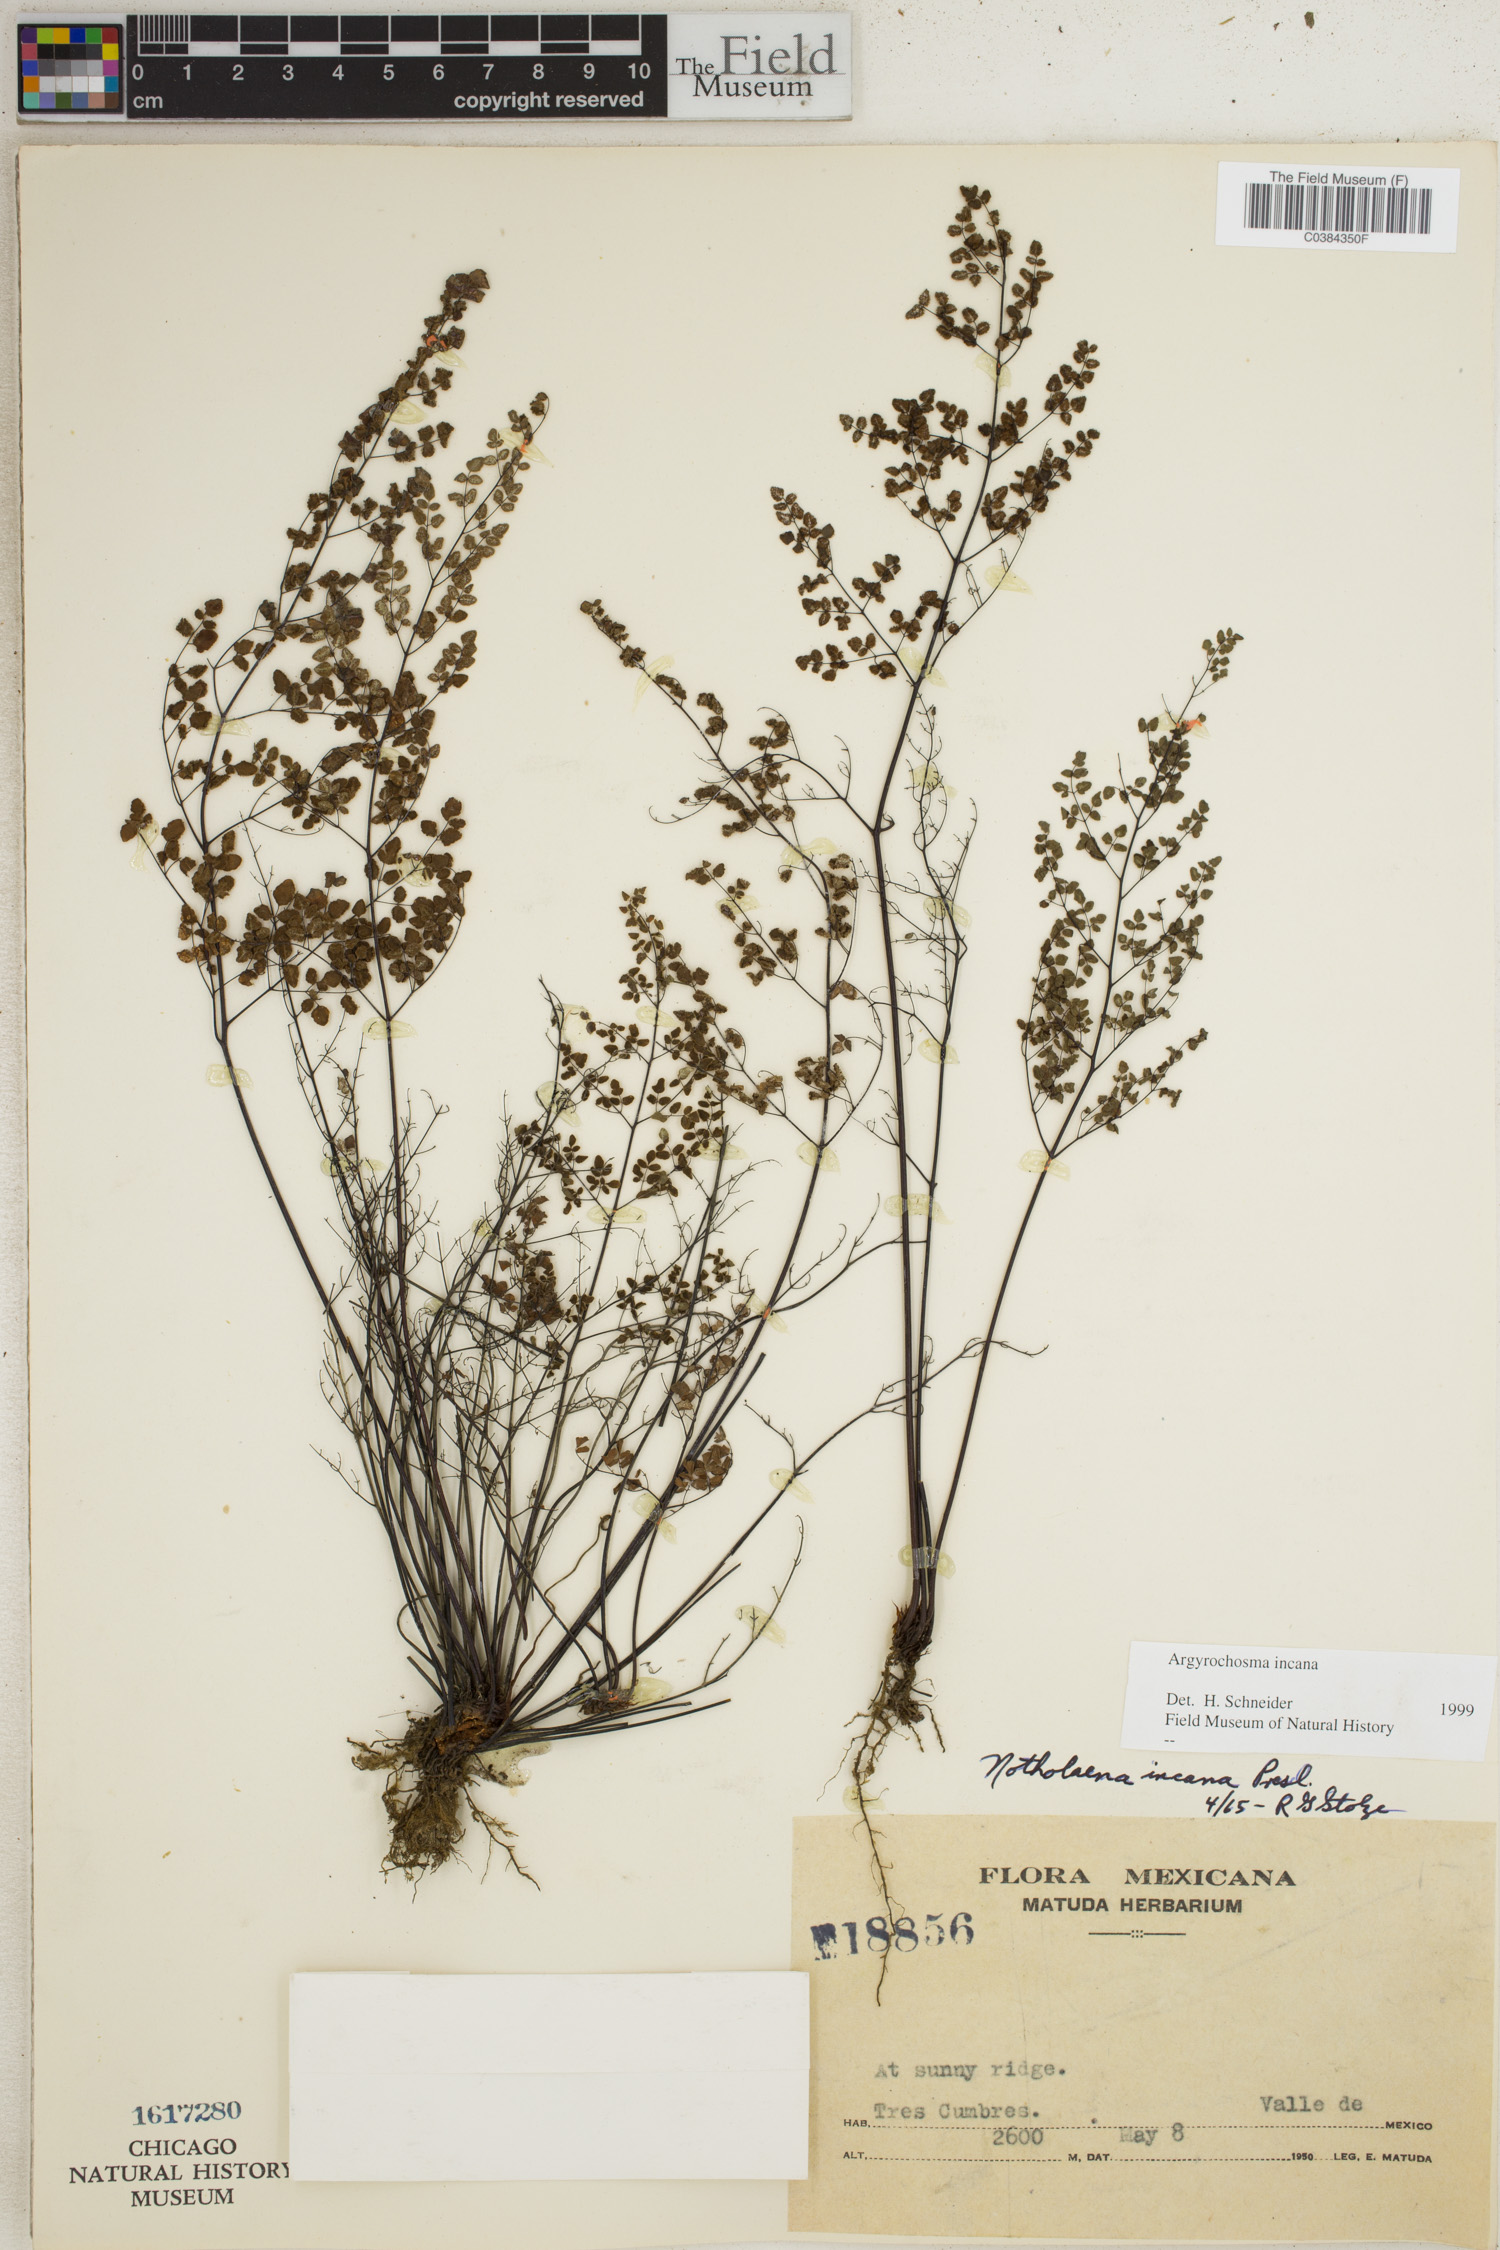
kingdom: Plantae
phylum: Tracheophyta
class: Polypodiopsida
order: Polypodiales
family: Pteridaceae
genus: Argyrochosma
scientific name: Argyrochosma incana
